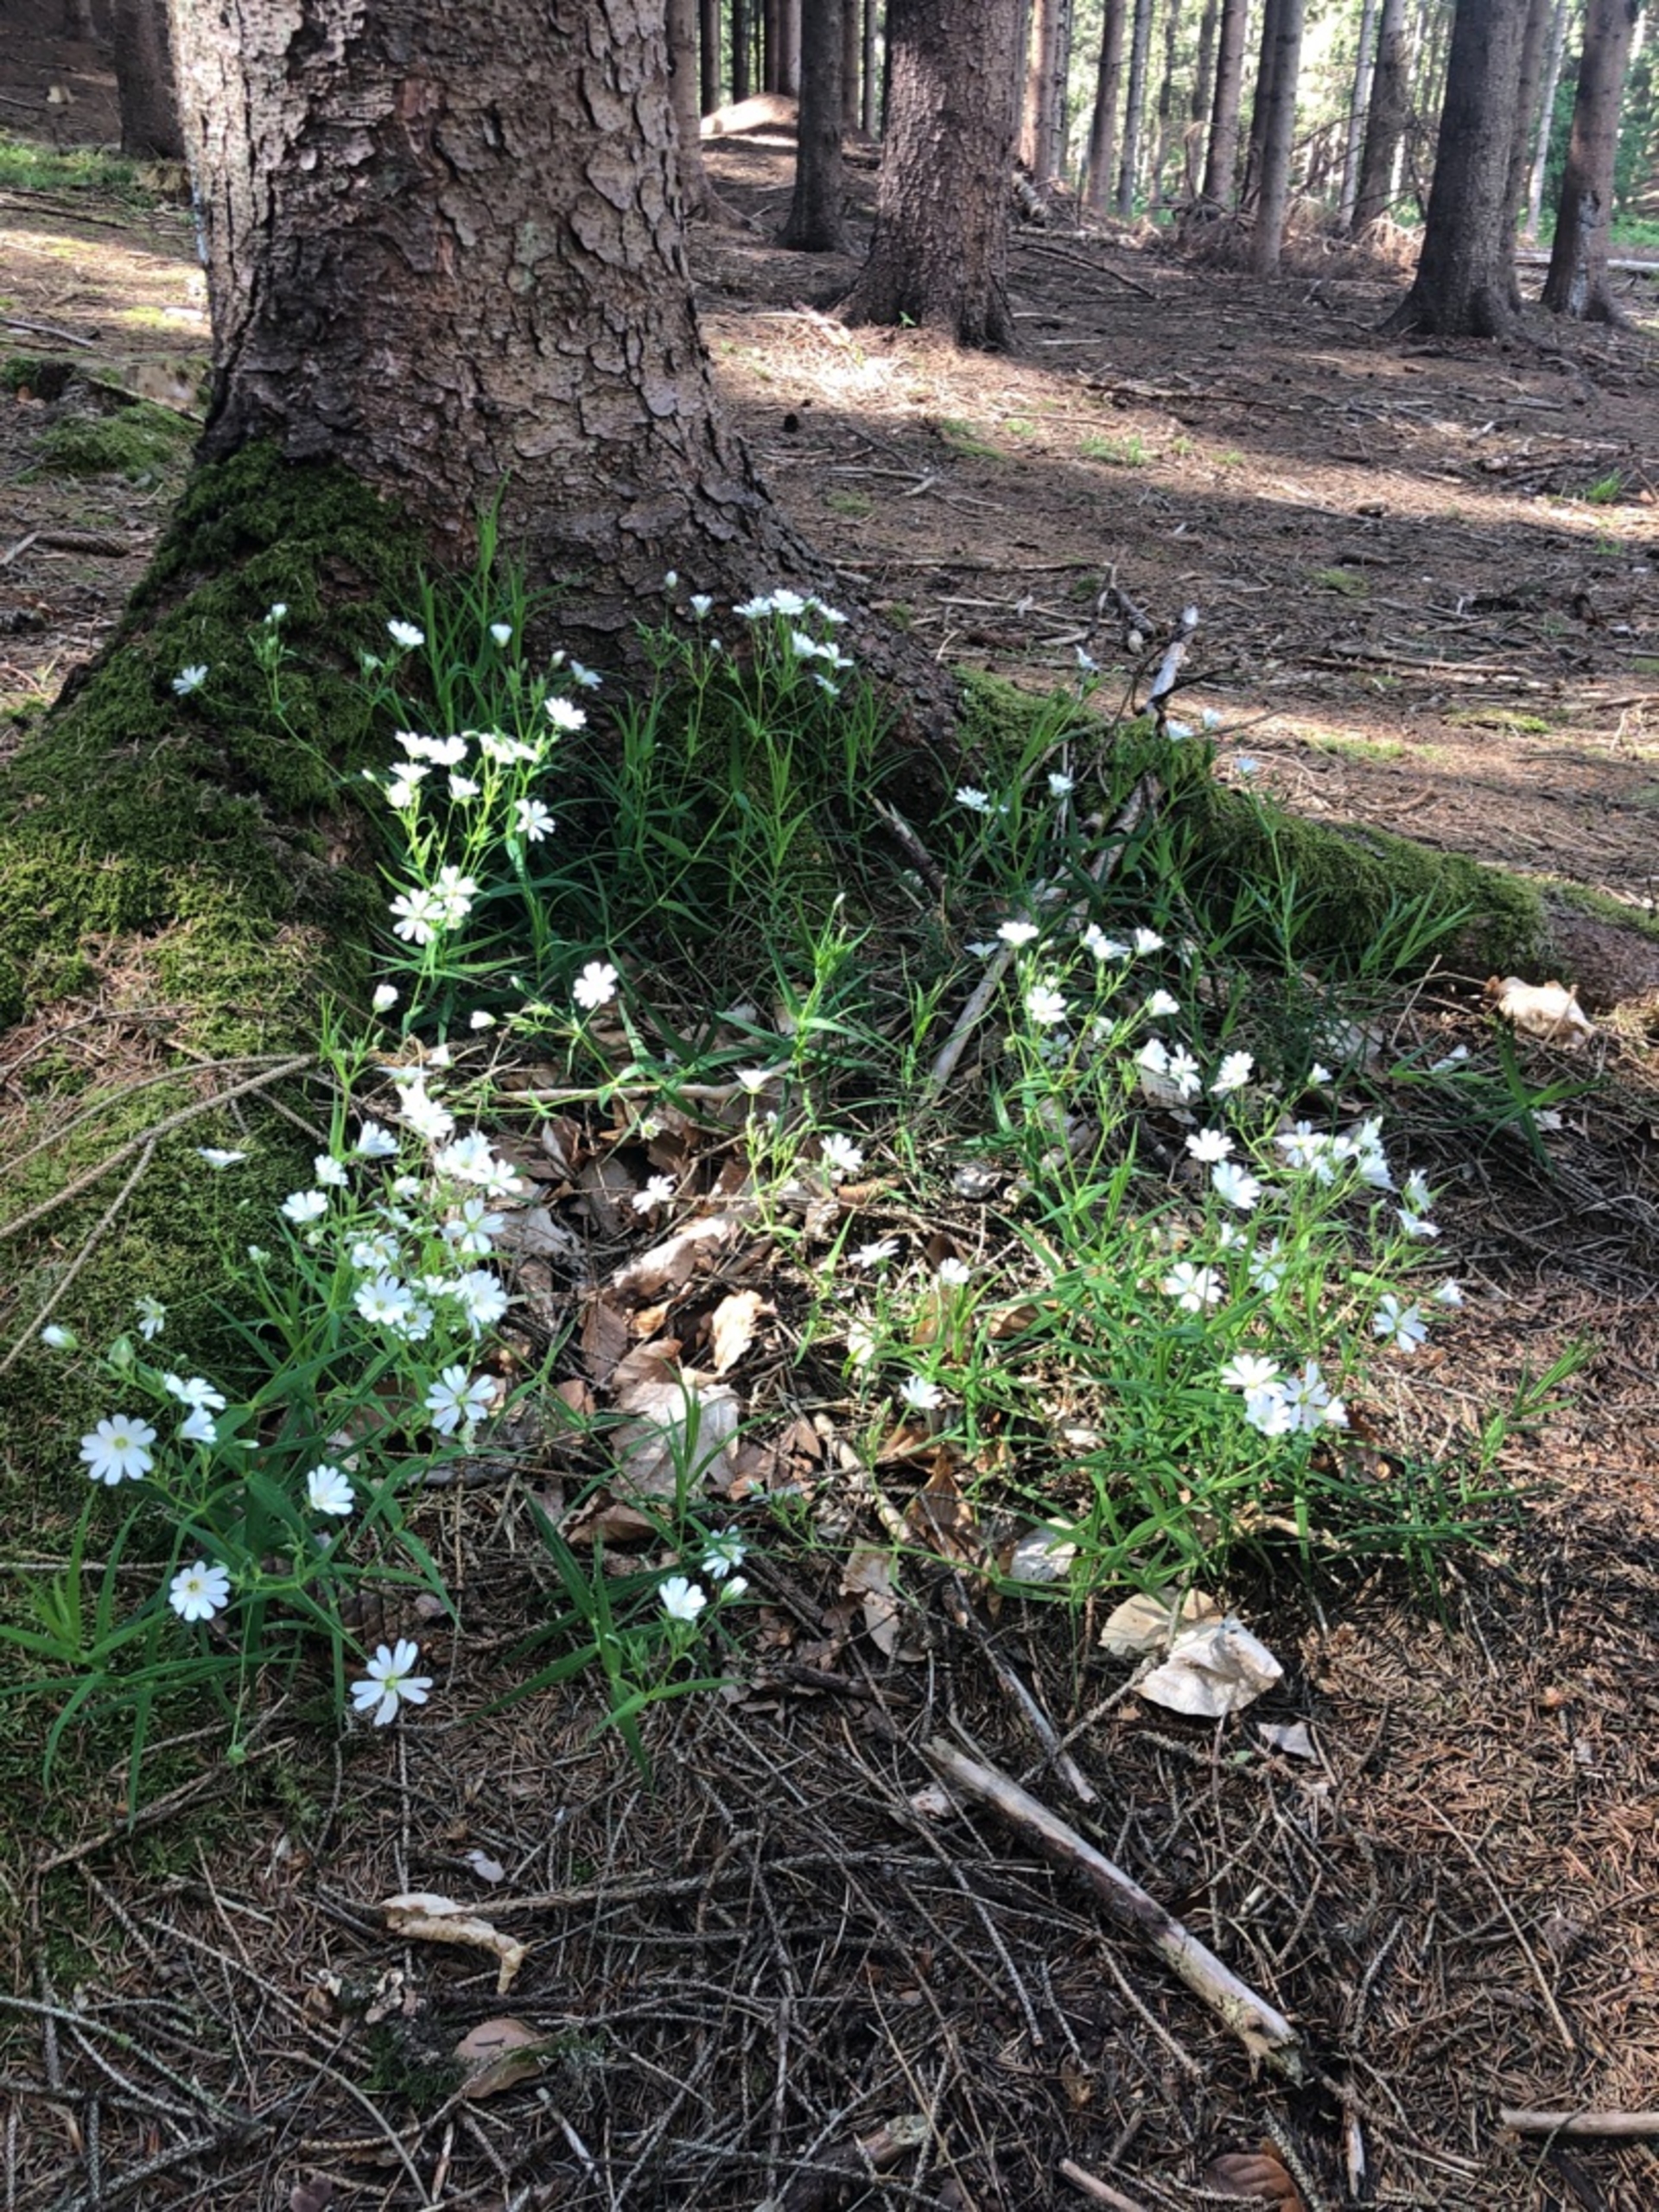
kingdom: Plantae
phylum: Tracheophyta
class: Magnoliopsida
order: Caryophyllales
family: Caryophyllaceae
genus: Rabelera
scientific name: Rabelera holostea
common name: Stor fladstjerne
